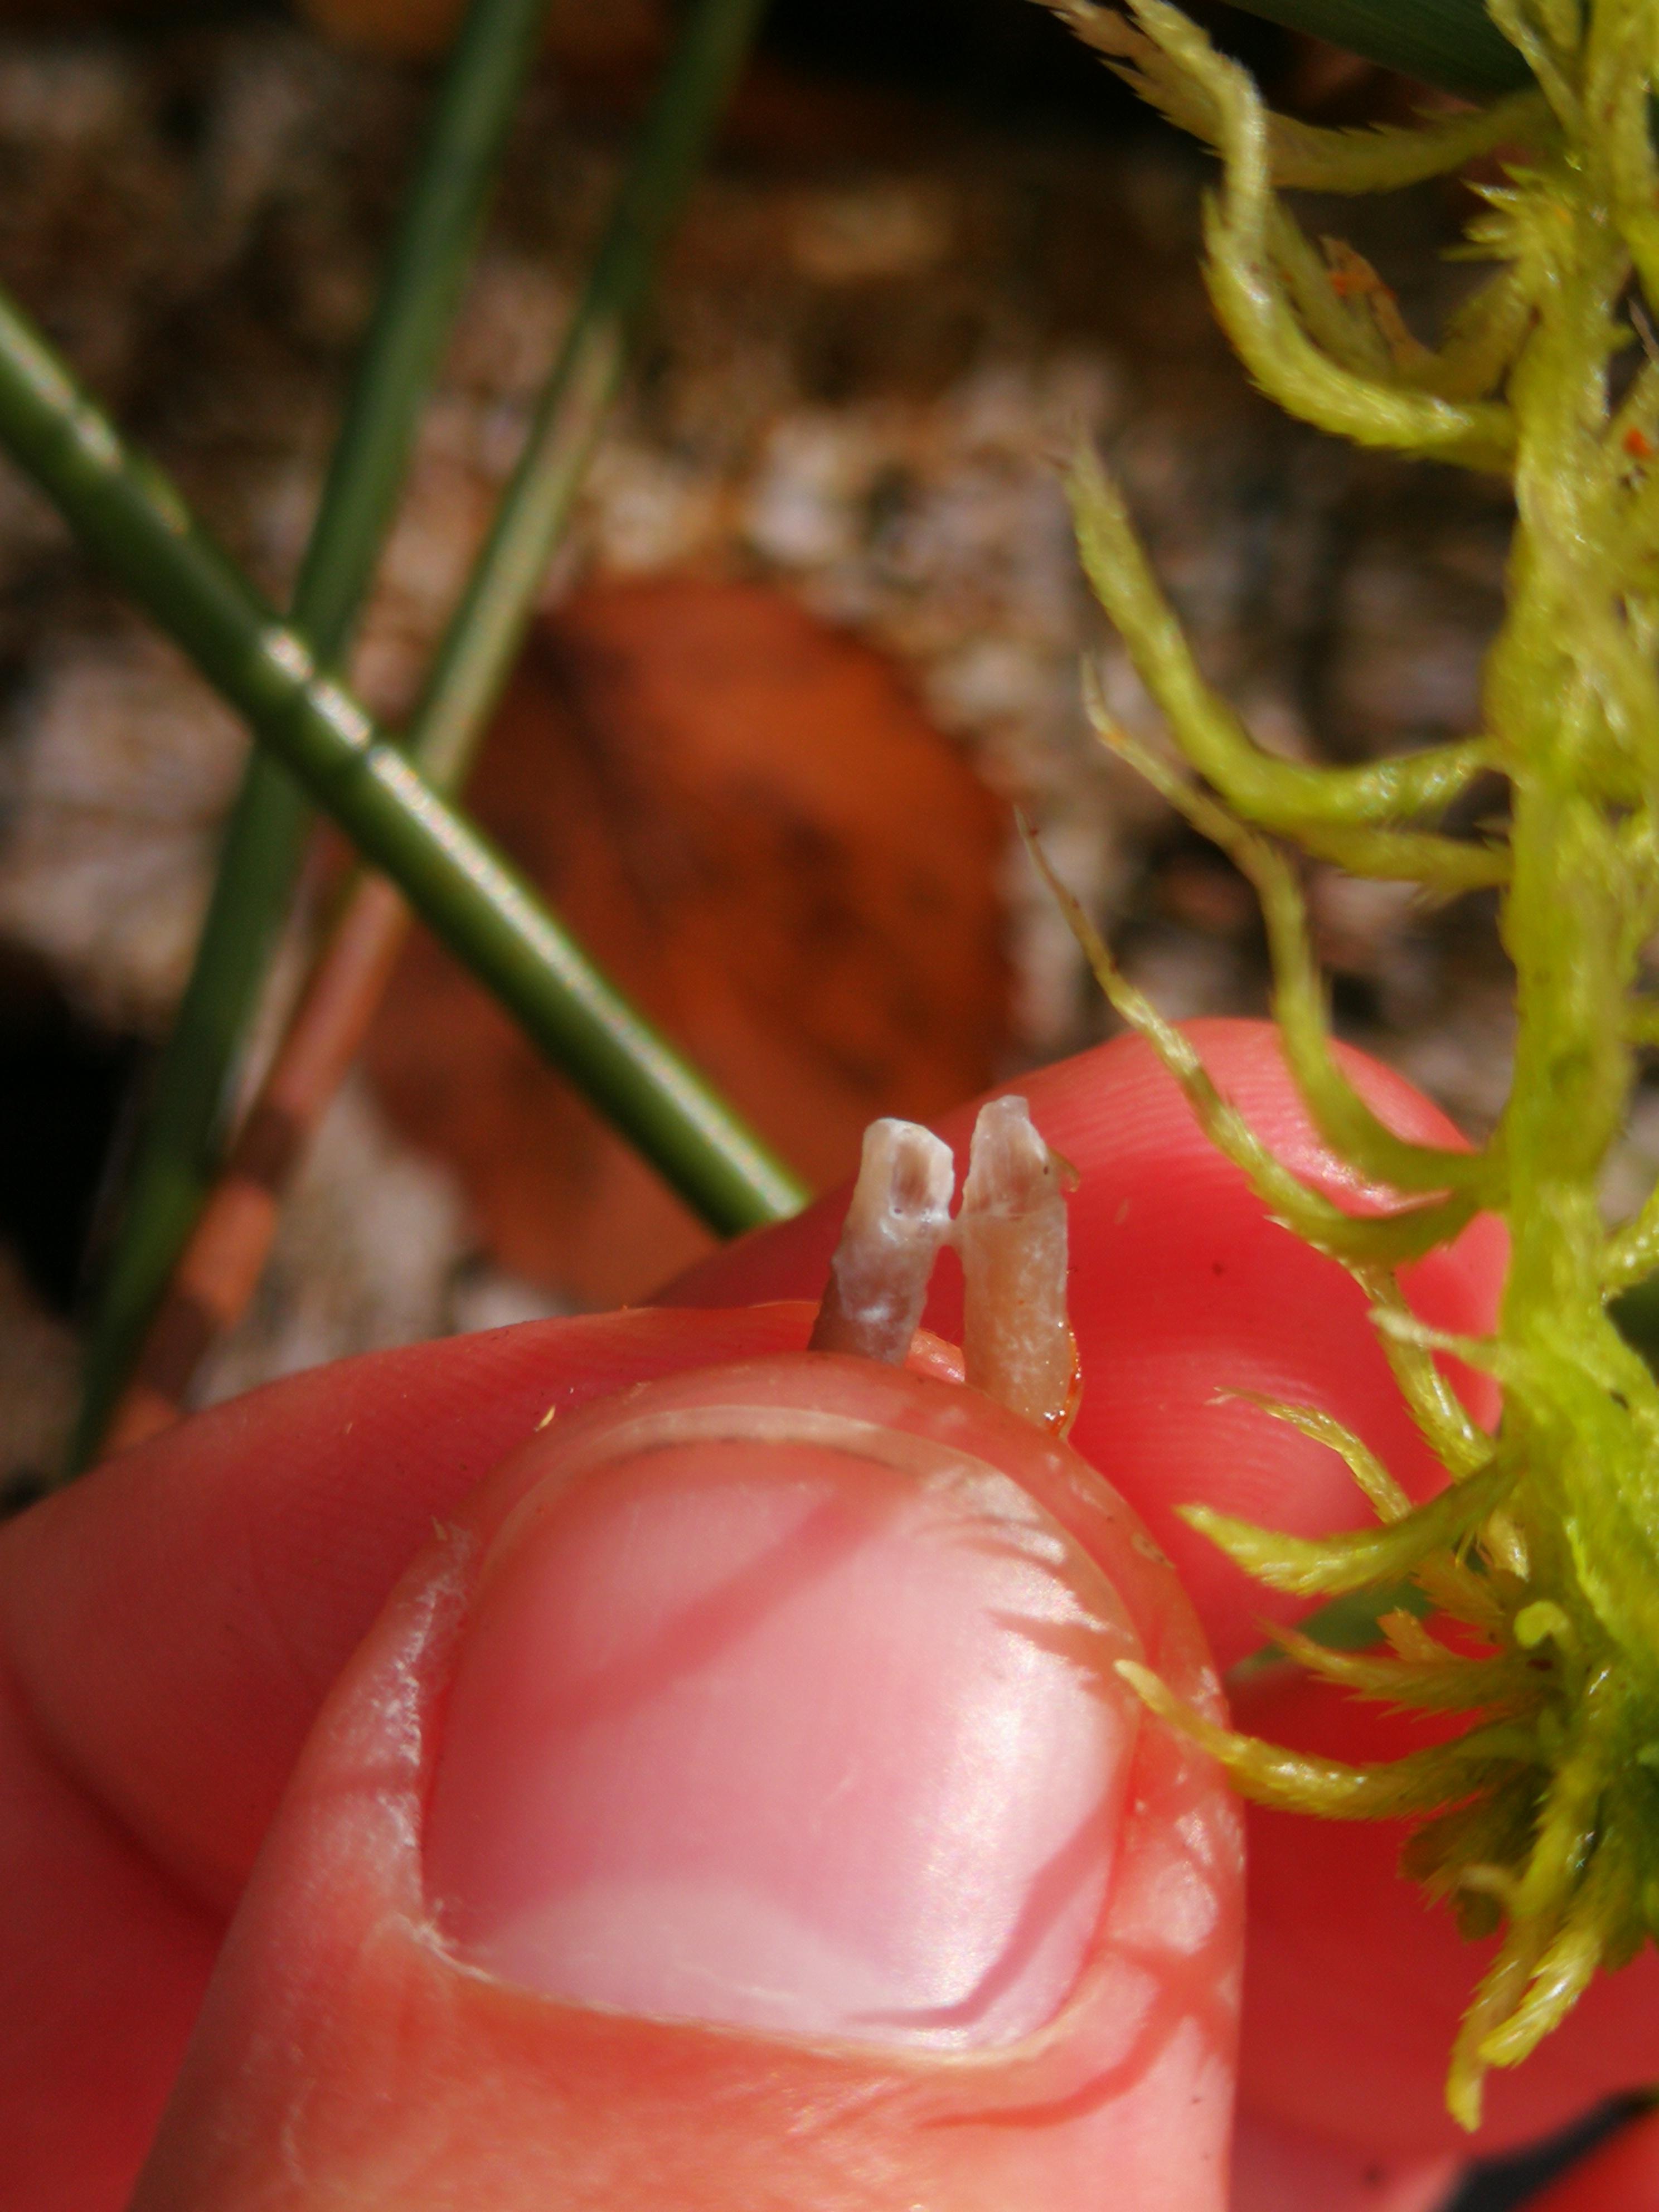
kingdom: Fungi
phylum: Basidiomycota
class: Agaricomycetes
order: Agaricales
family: Mycenaceae
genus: Mycena
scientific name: Mycena galopus
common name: hvidmælket huesvamp
